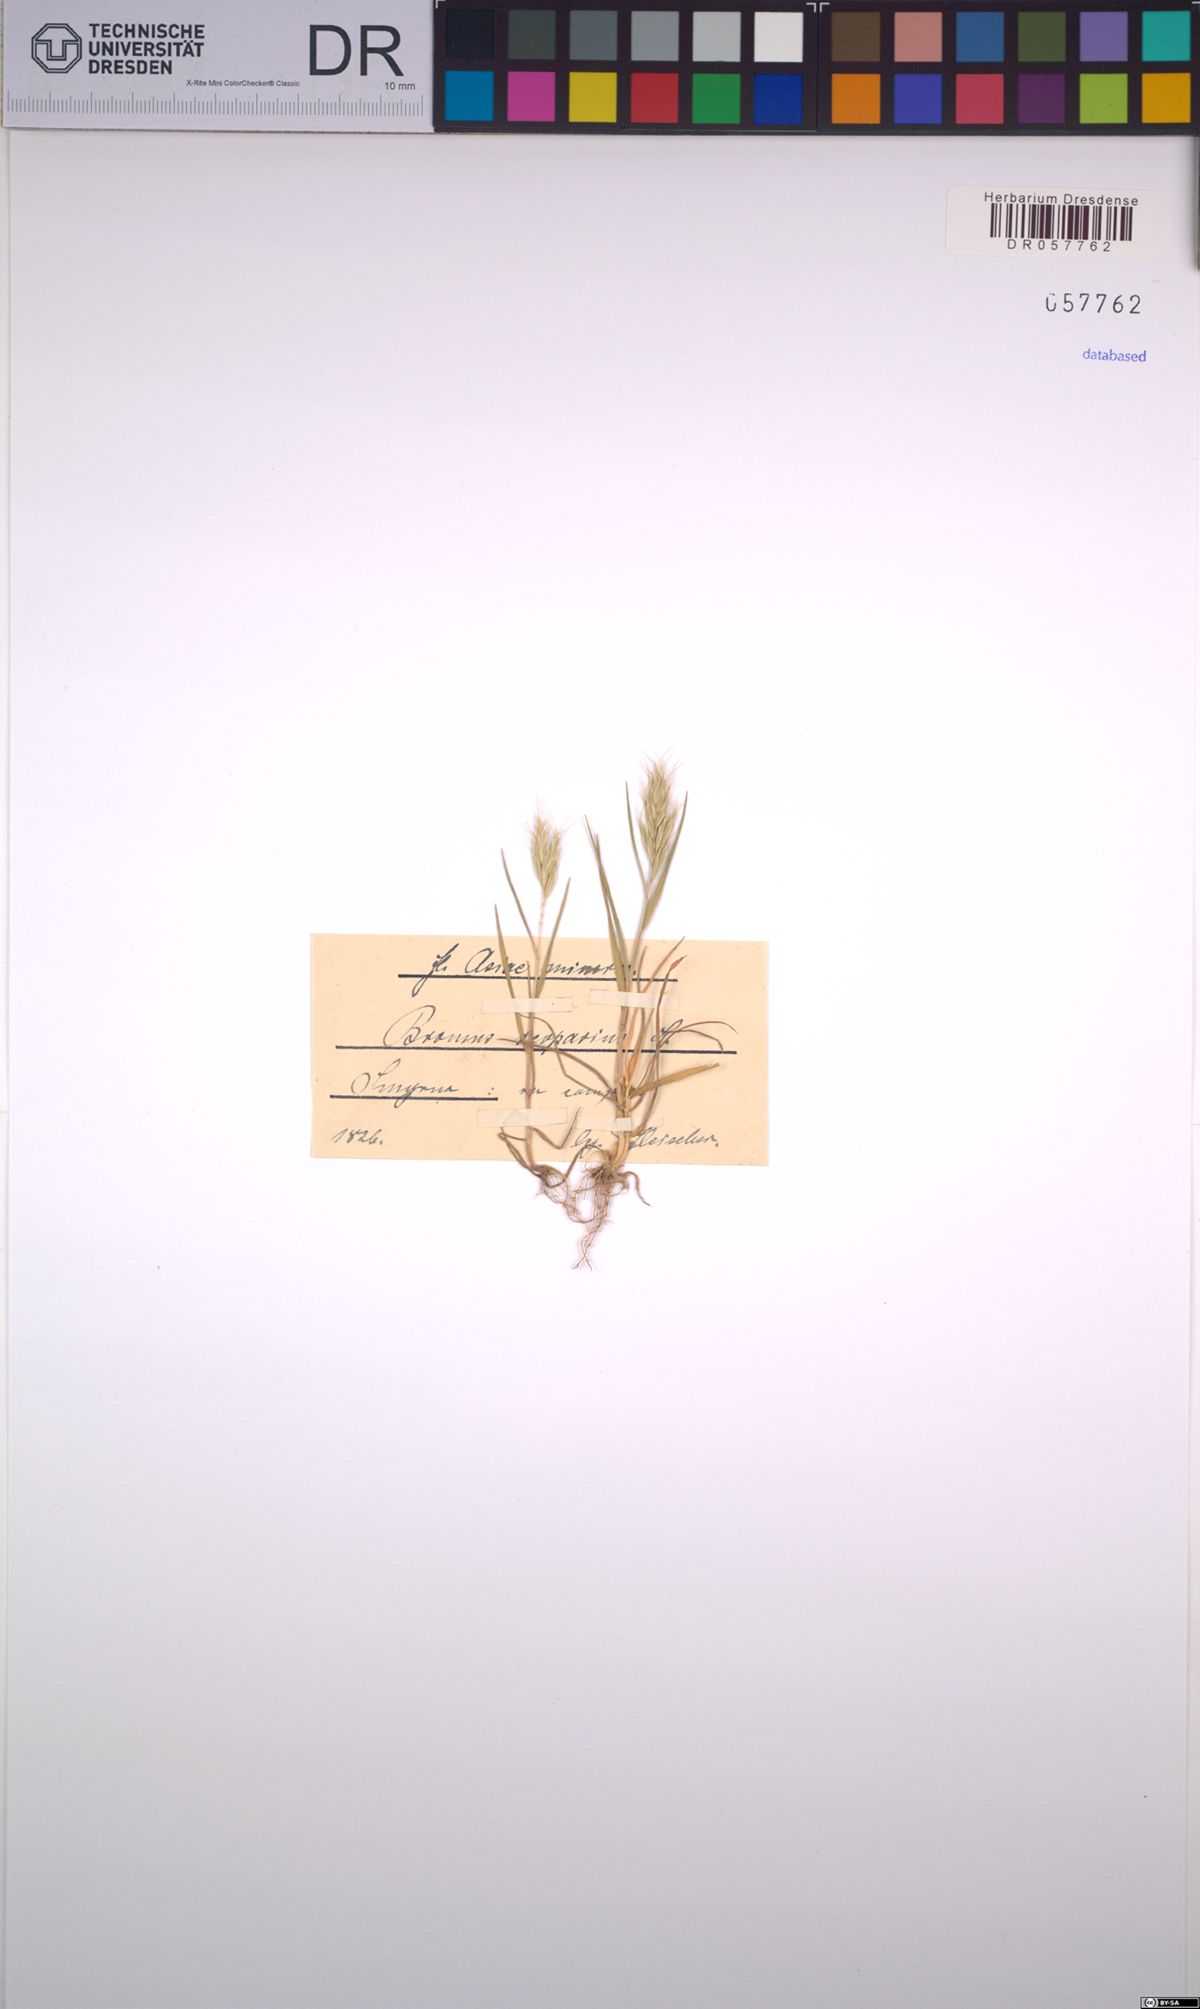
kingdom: Plantae
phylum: Tracheophyta
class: Liliopsida
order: Poales
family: Poaceae
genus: Bromus
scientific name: Bromus scoparius
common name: Broom brome
